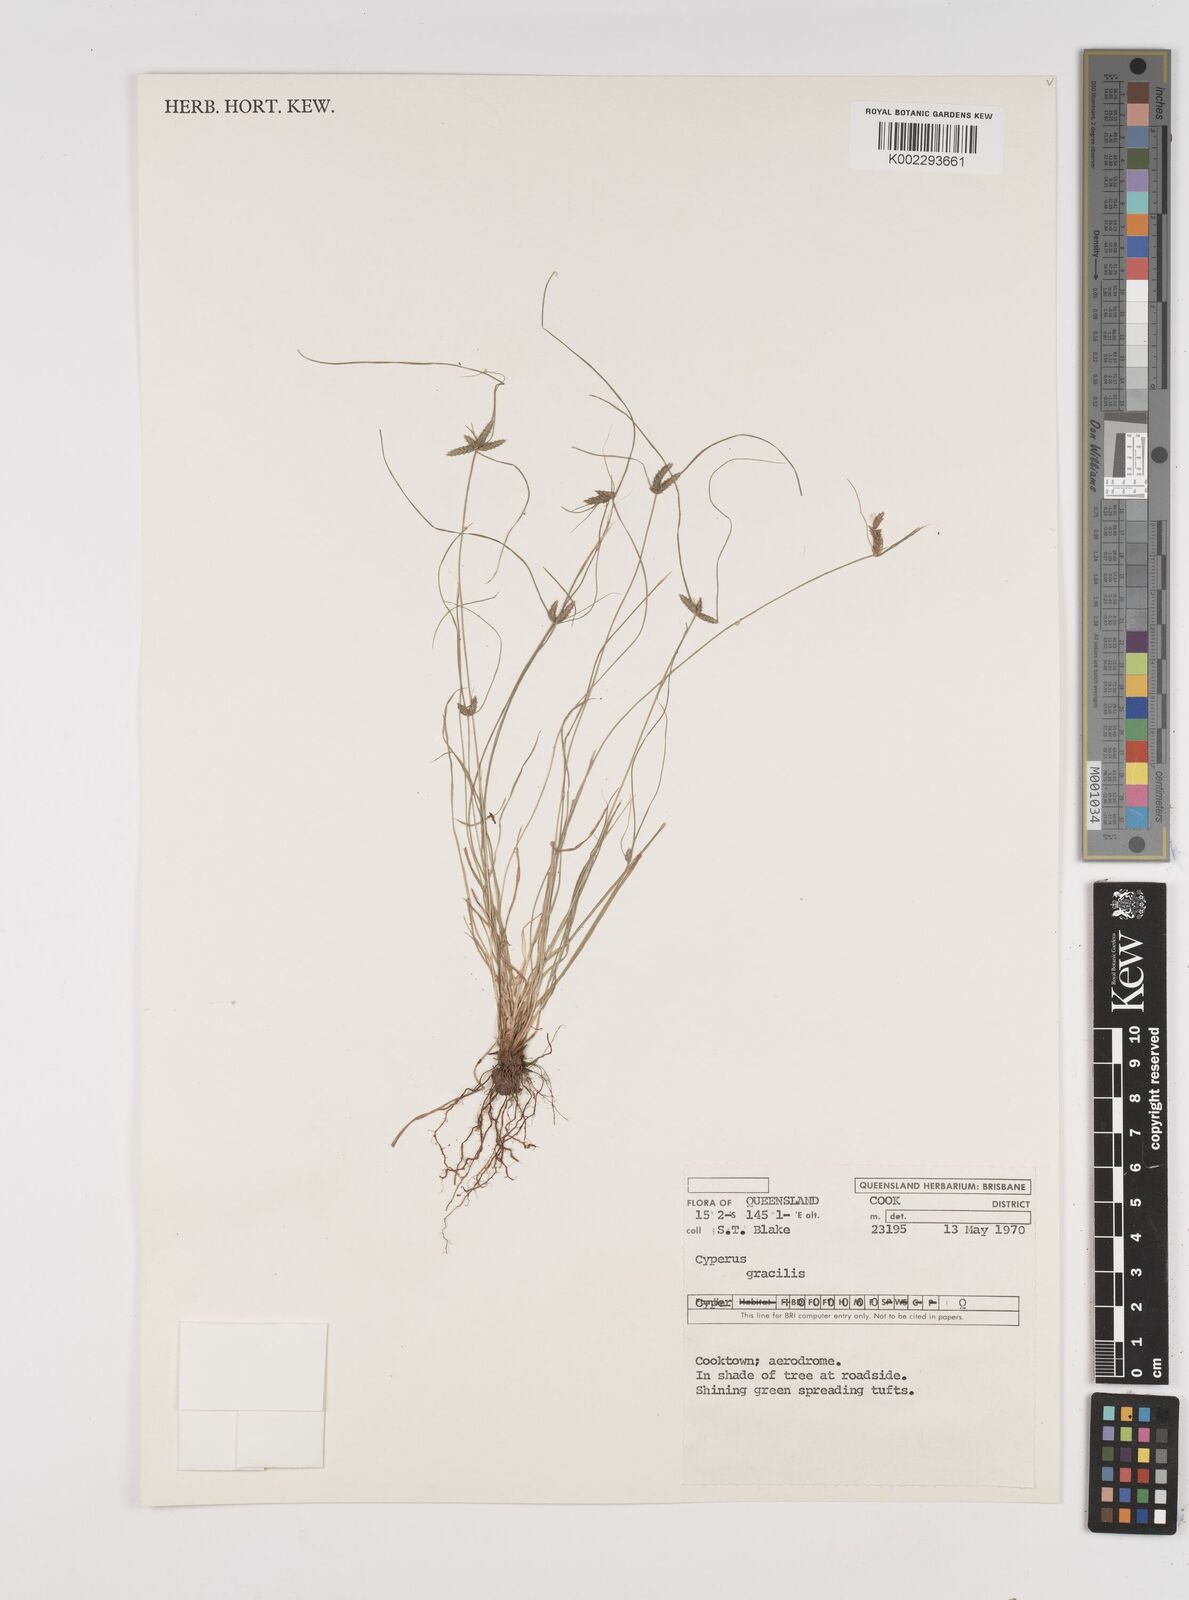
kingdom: Plantae
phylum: Tracheophyta
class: Liliopsida
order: Poales
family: Cyperaceae
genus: Cyperus
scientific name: Cyperus gracilis
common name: Slimjim flatsedge
